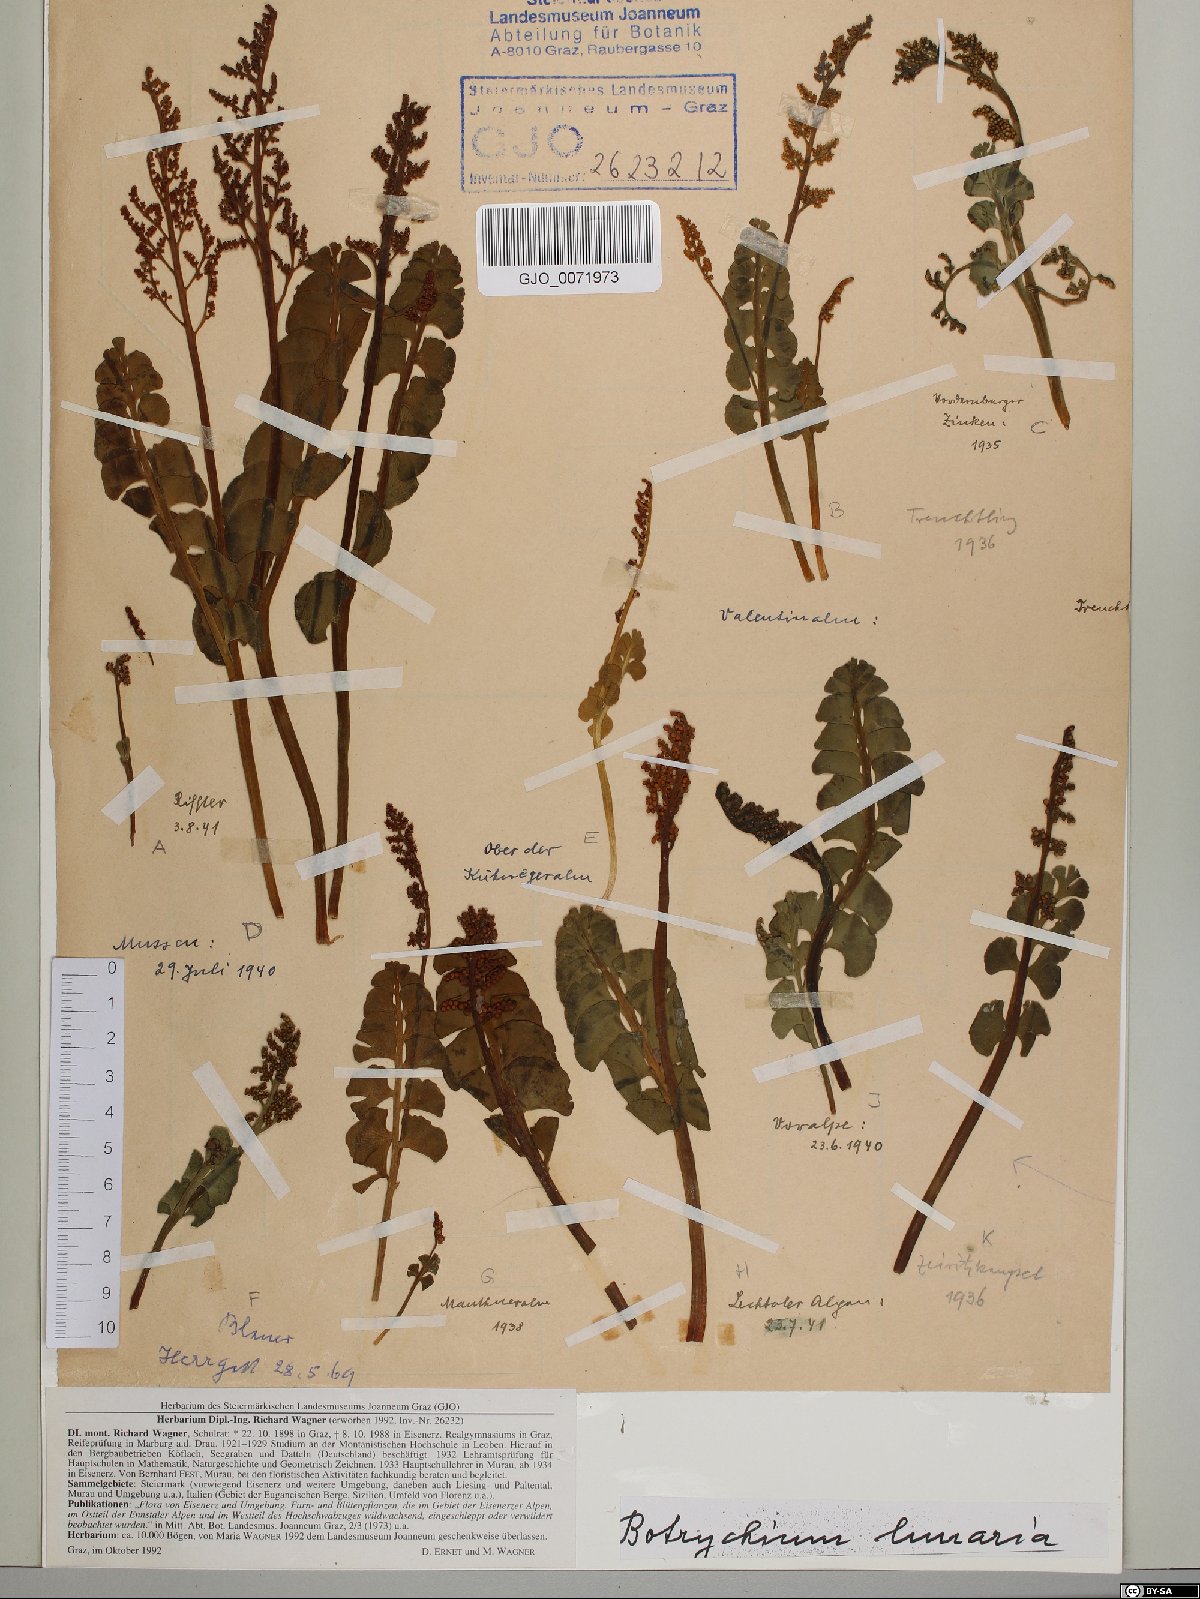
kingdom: Plantae
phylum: Tracheophyta
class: Polypodiopsida
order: Ophioglossales
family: Ophioglossaceae
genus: Botrychium
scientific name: Botrychium lunaria
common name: Moonwort
